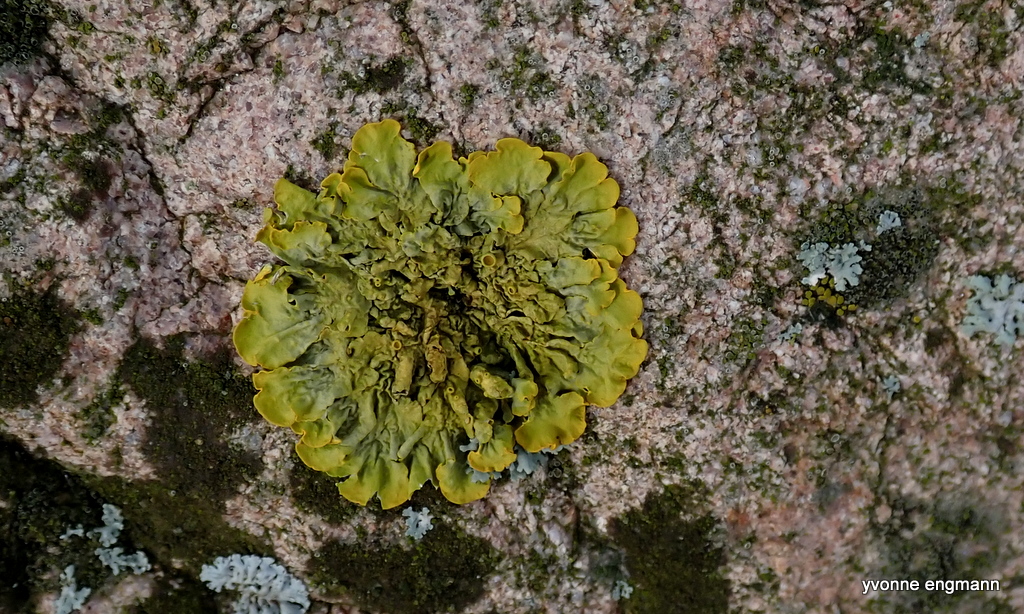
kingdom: Fungi
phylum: Ascomycota
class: Lecanoromycetes
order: Teloschistales
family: Teloschistaceae
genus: Xanthoria
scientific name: Xanthoria parietina
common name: almindelig væggelav
